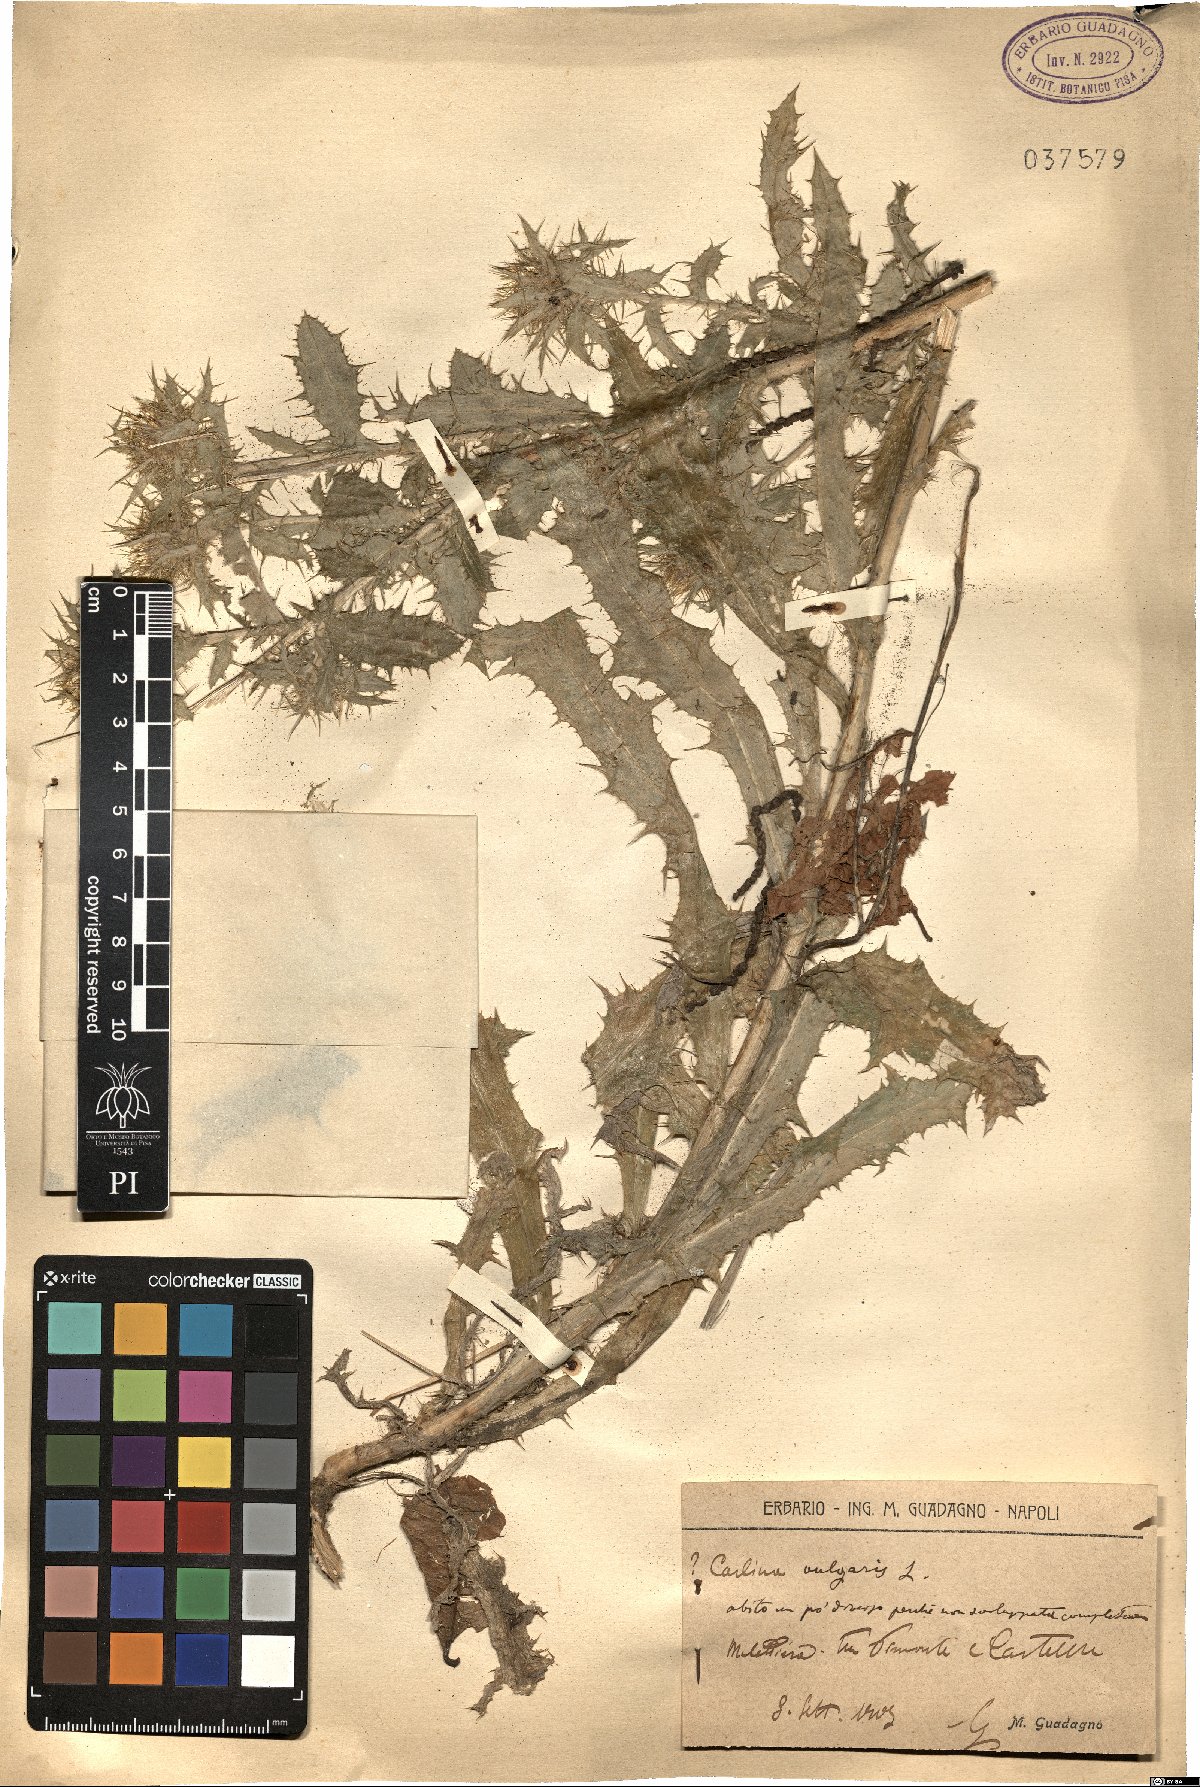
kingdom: Plantae
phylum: Tracheophyta
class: Magnoliopsida
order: Asterales
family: Asteraceae
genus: Carlina
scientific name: Carlina vulgaris
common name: Carline thistle
